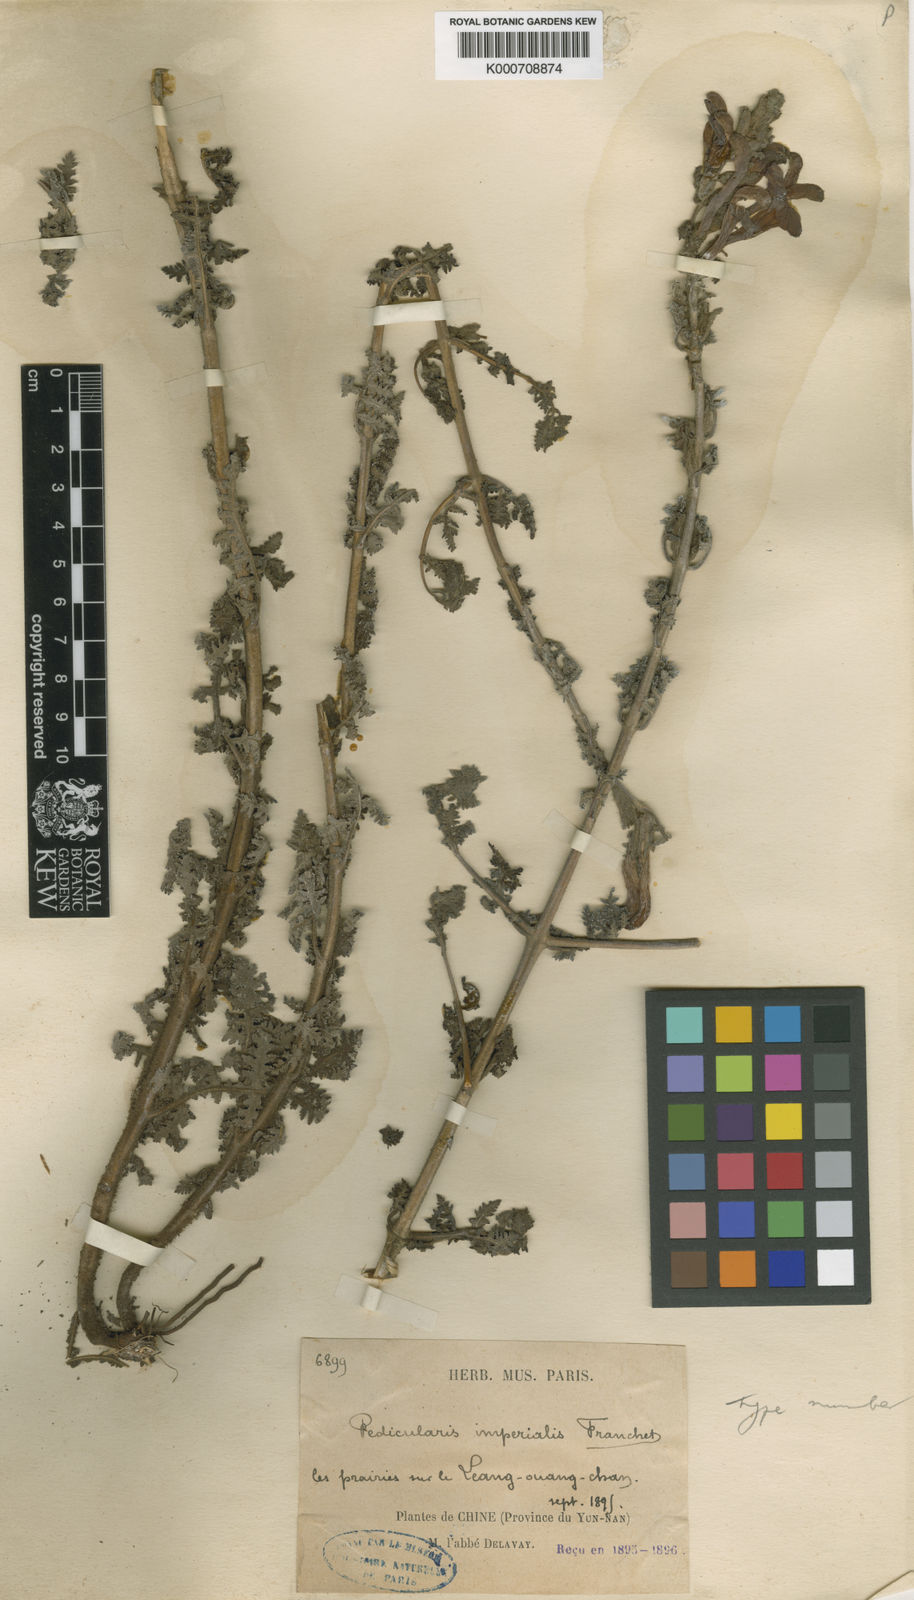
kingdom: Plantae
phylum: Tracheophyta
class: Magnoliopsida
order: Lamiales
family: Orobanchaceae
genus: Pedicularis
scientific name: Pedicularis imperialis
